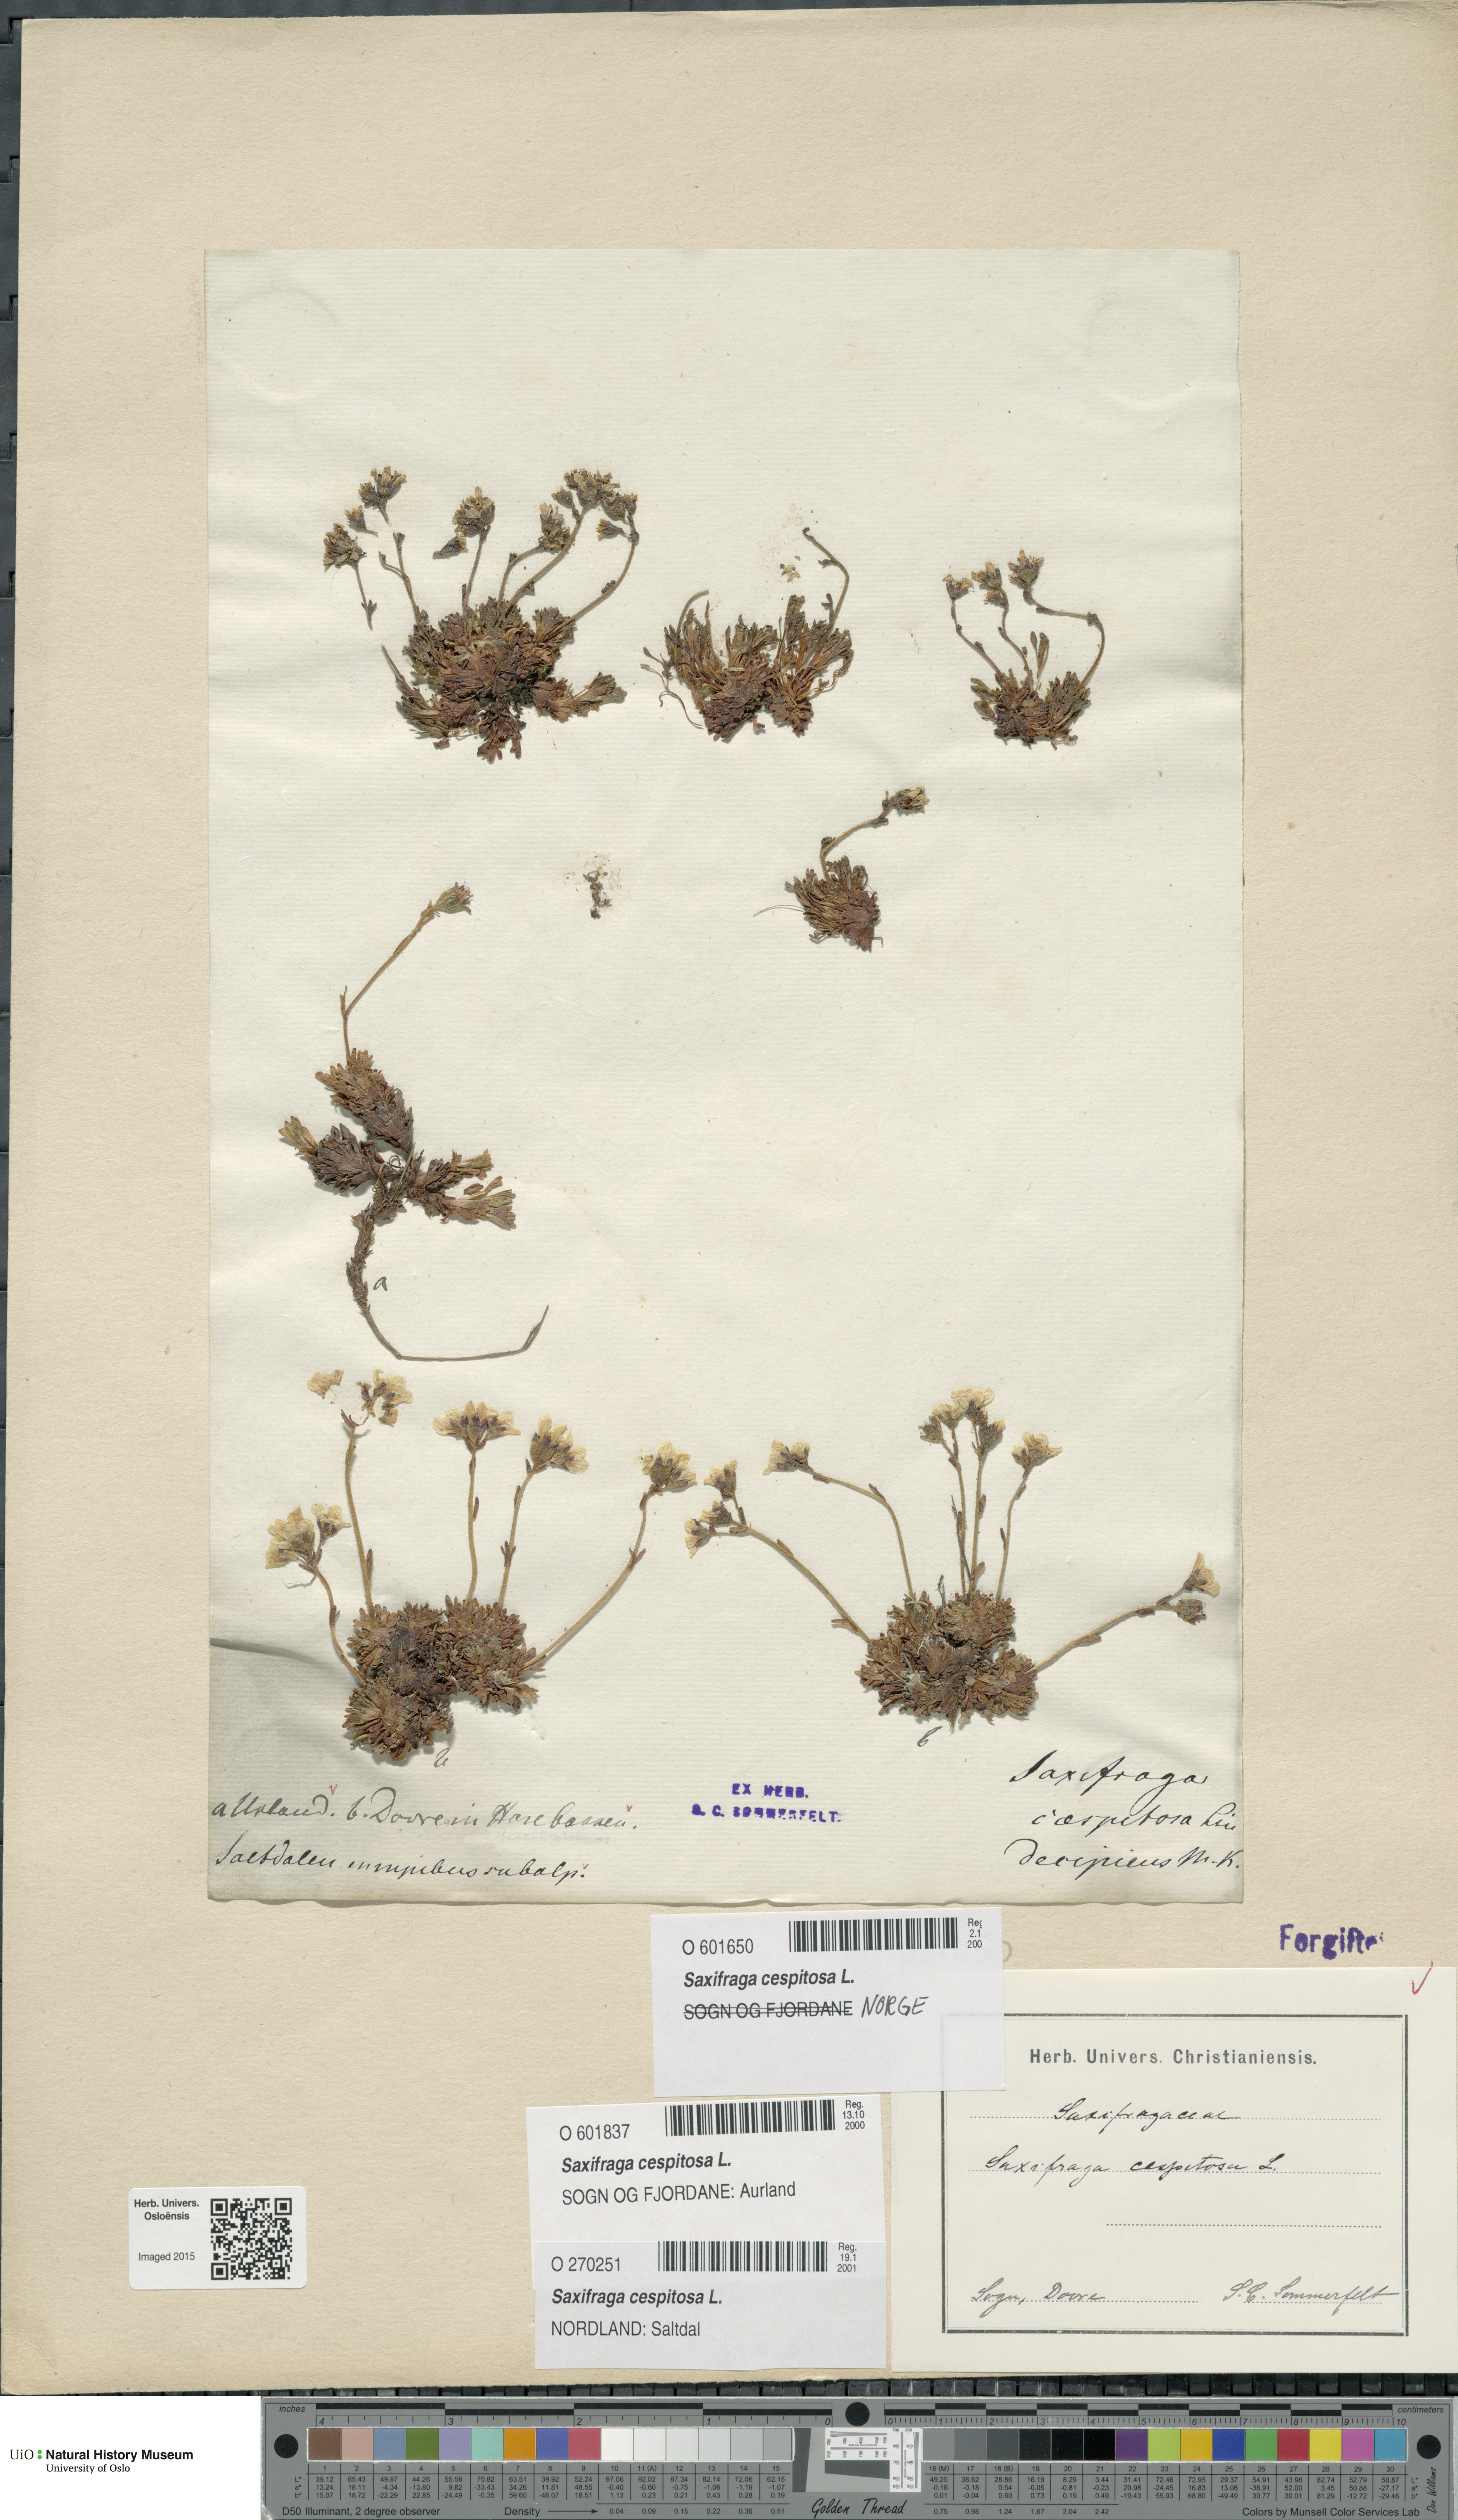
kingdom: Plantae
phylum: Tracheophyta
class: Magnoliopsida
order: Saxifragales
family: Saxifragaceae
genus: Saxifraga
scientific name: Saxifraga cespitosa
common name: Tufted saxifrage
